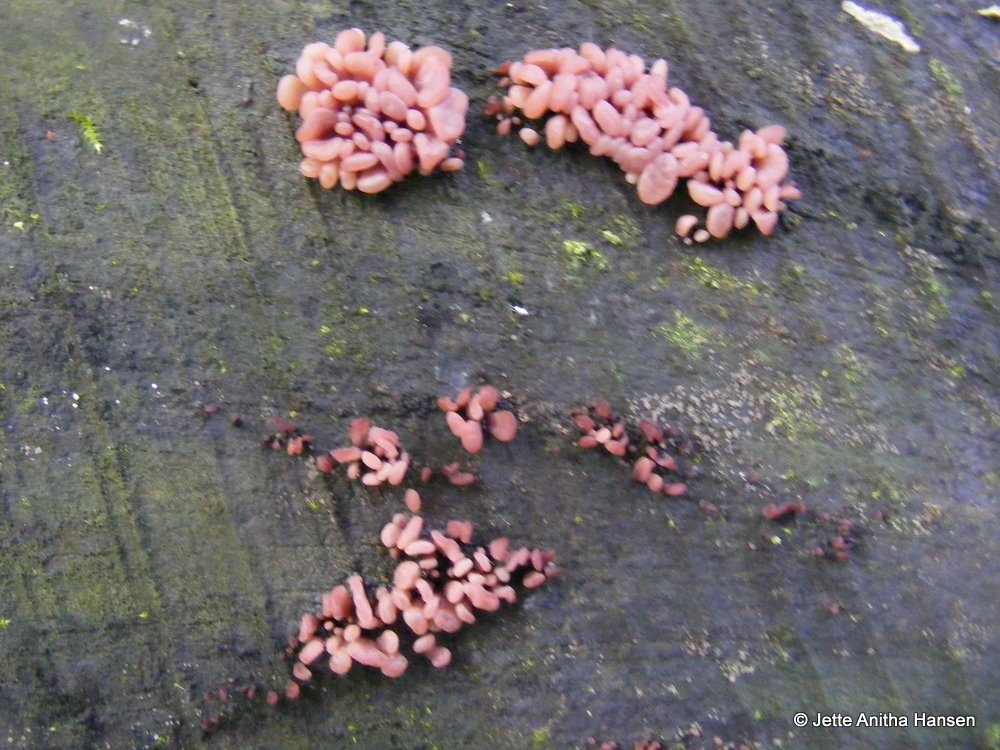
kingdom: Fungi
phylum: Ascomycota
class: Leotiomycetes
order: Helotiales
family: Gelatinodiscaceae
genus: Ascocoryne
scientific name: Ascocoryne sarcoides
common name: rødlilla sejskive
